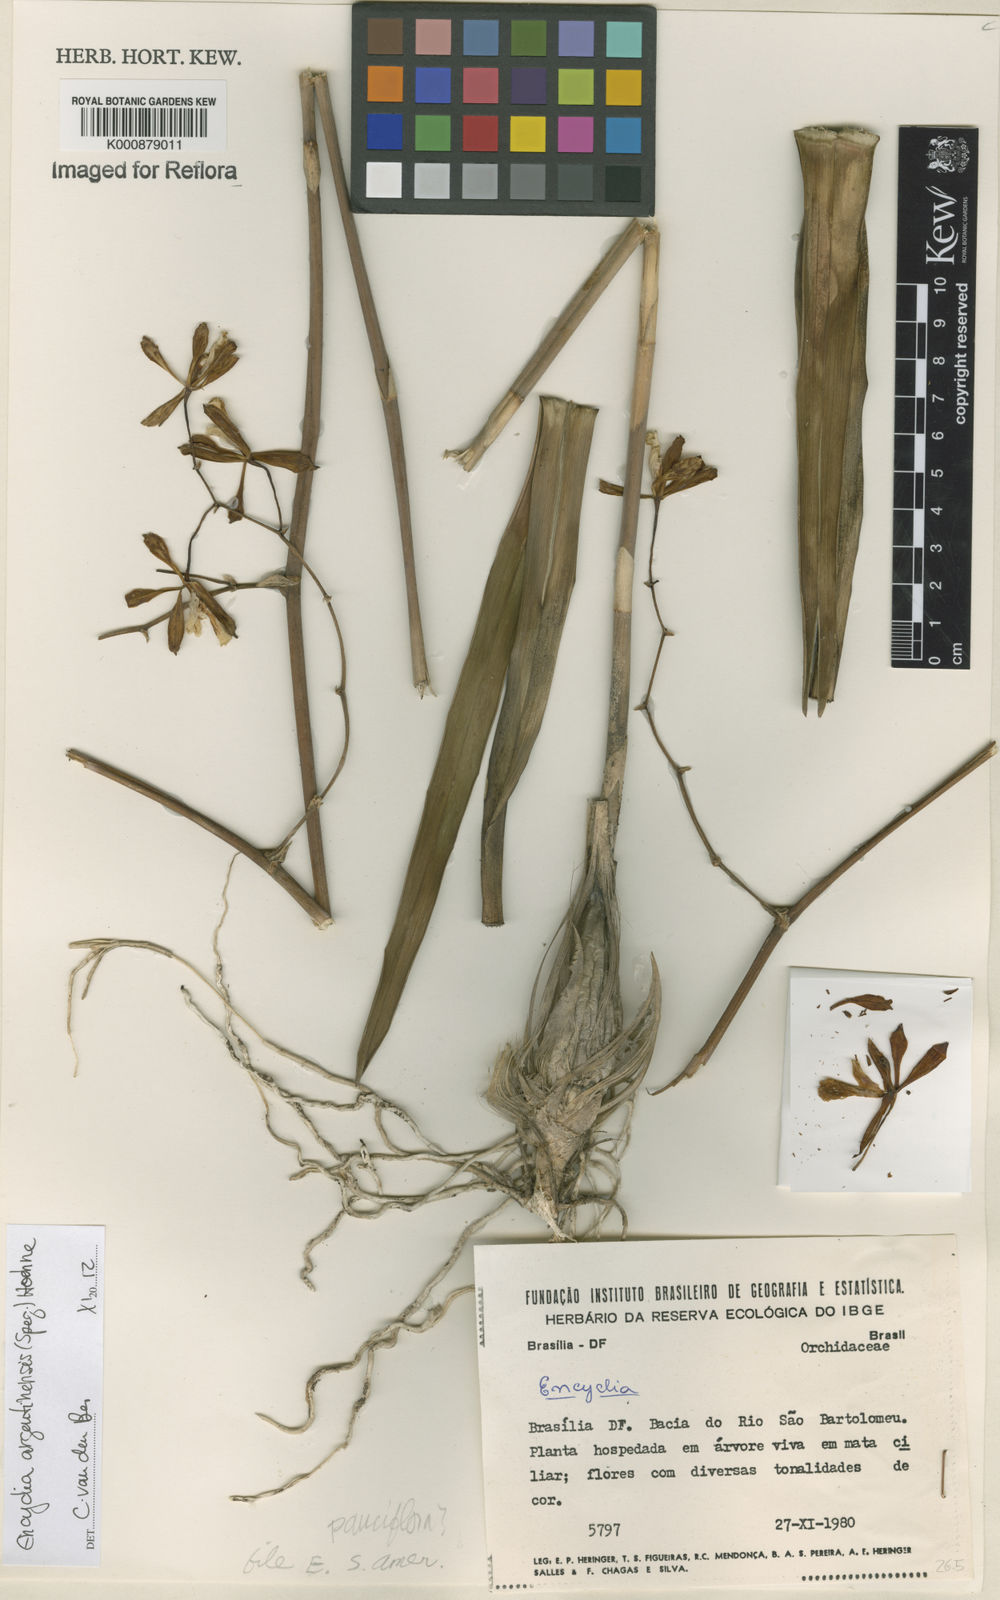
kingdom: Plantae
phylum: Tracheophyta
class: Liliopsida
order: Asparagales
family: Orchidaceae
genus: Encyclia
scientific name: Encyclia argentinensis
